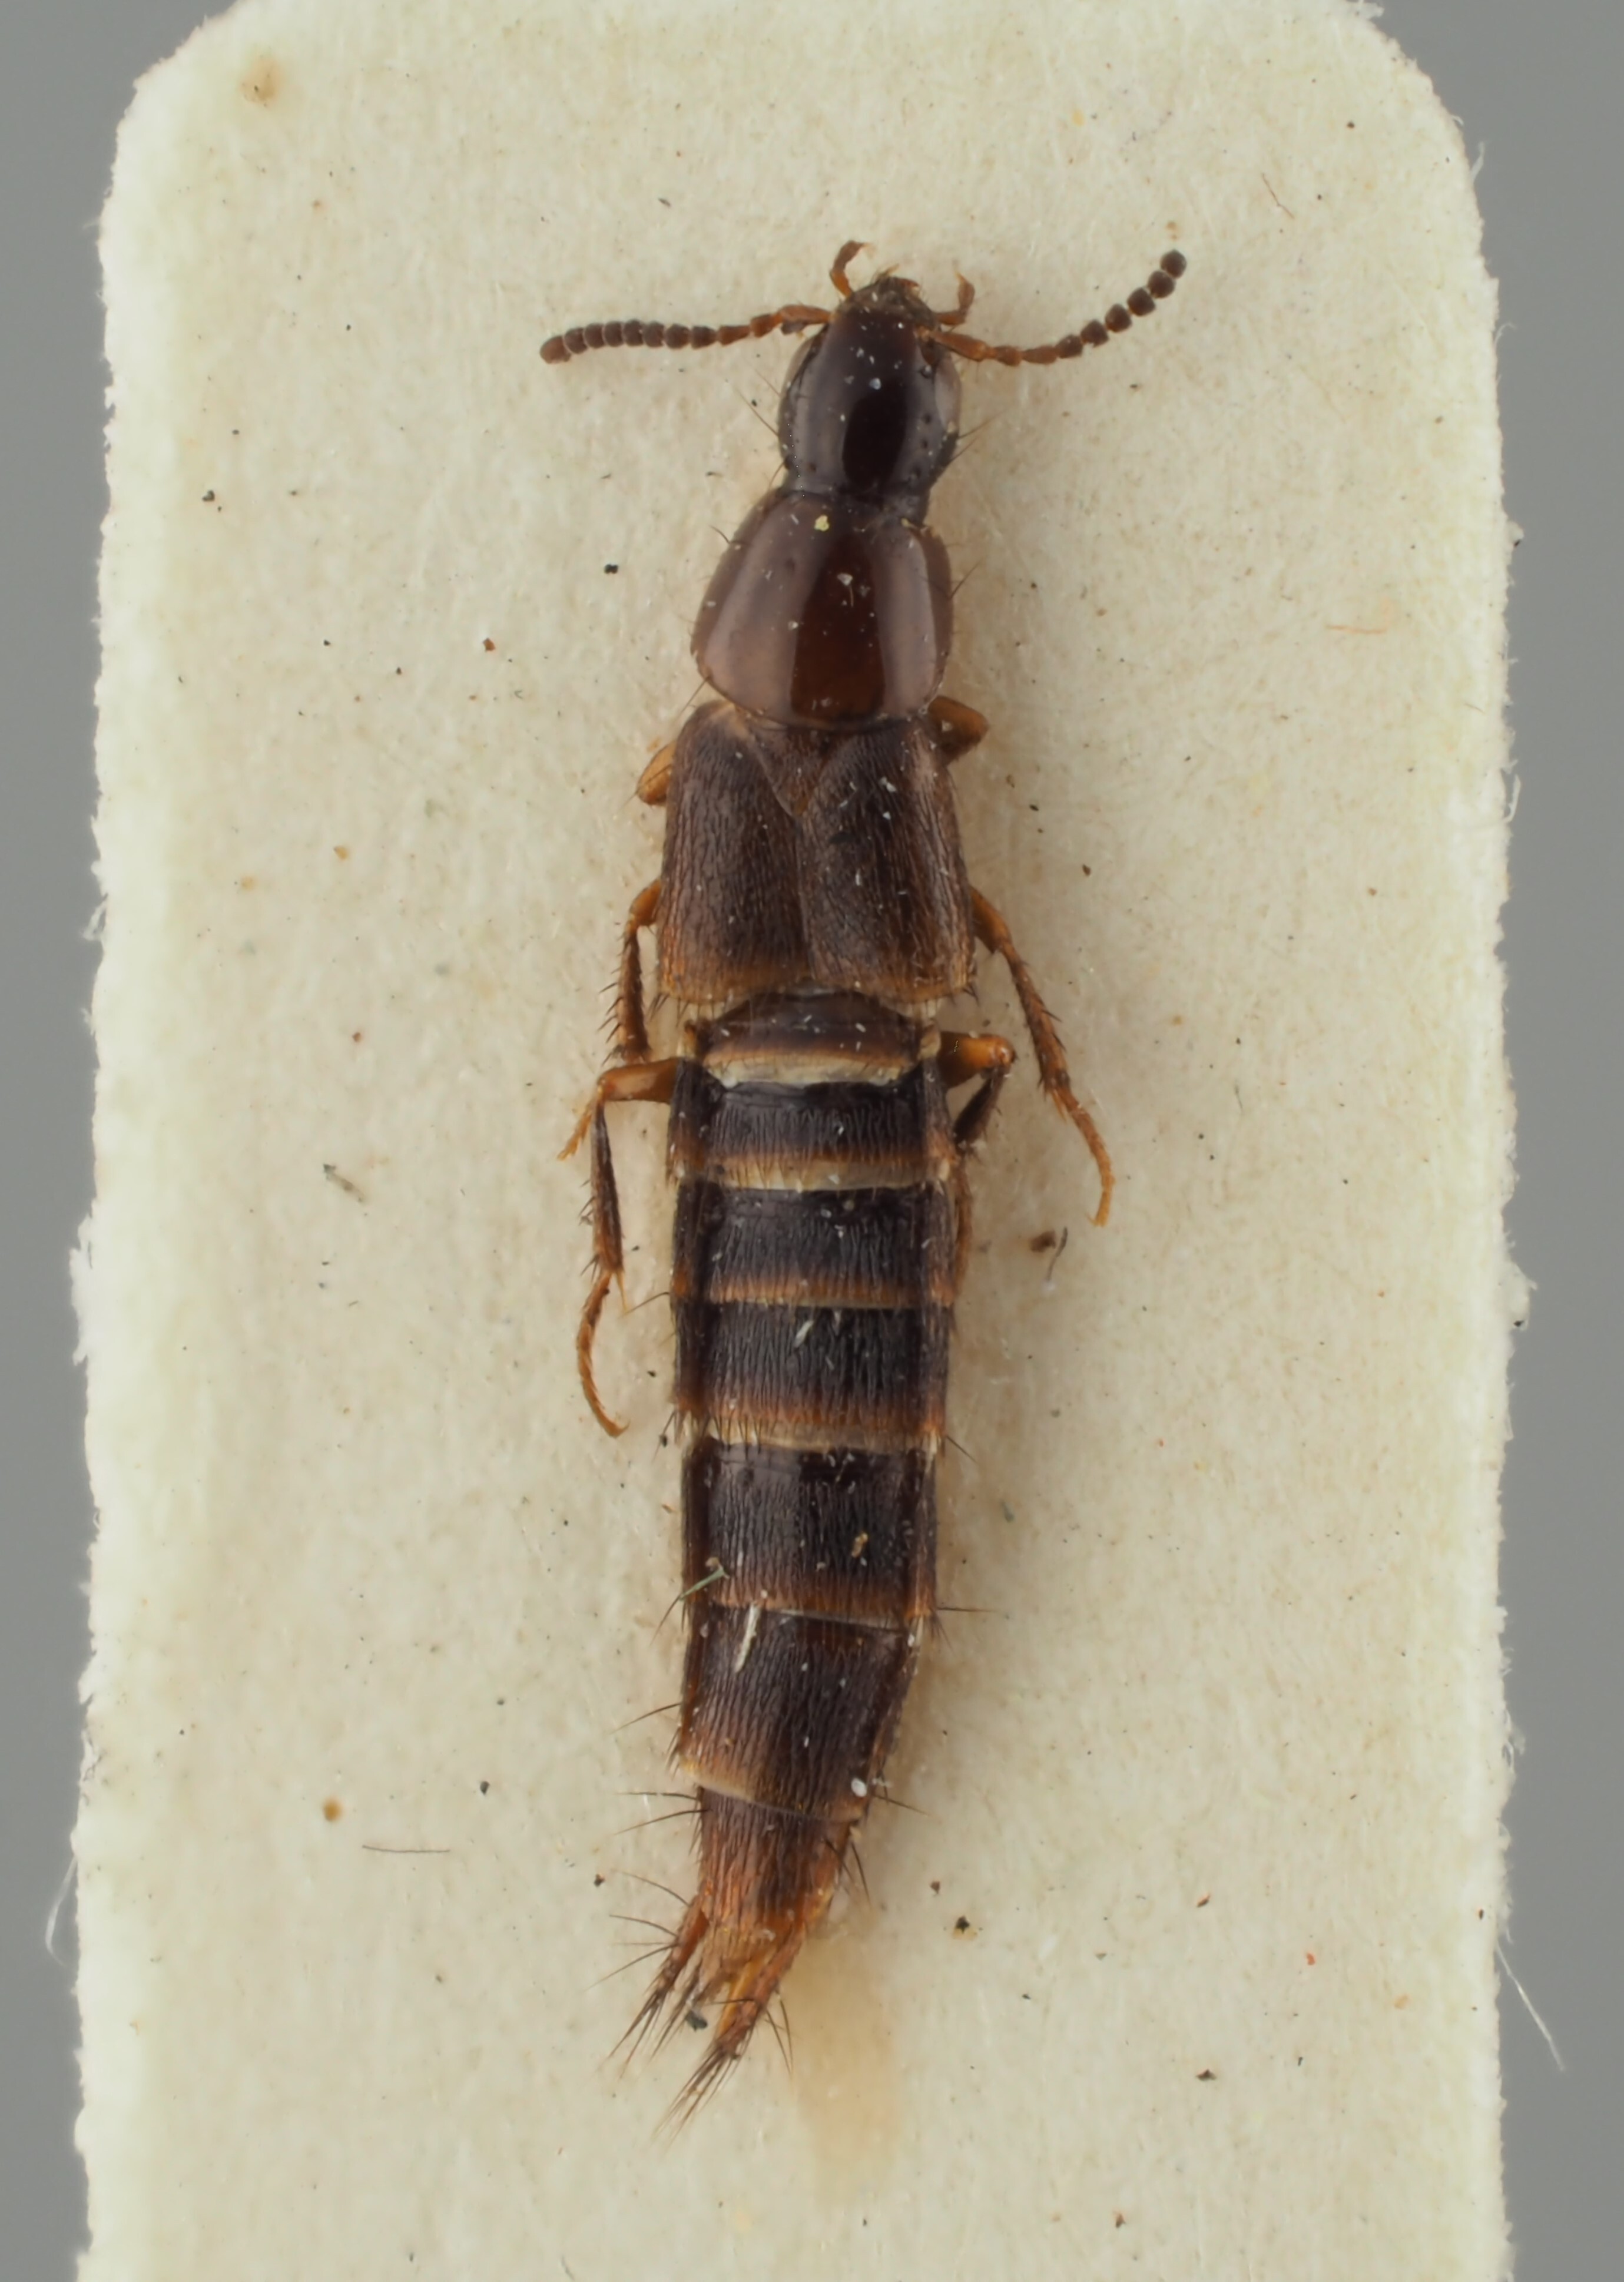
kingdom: Animalia
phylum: Arthropoda
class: Insecta
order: Coleoptera
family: Staphylinidae
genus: Heterothops
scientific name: Heterothops praevius
